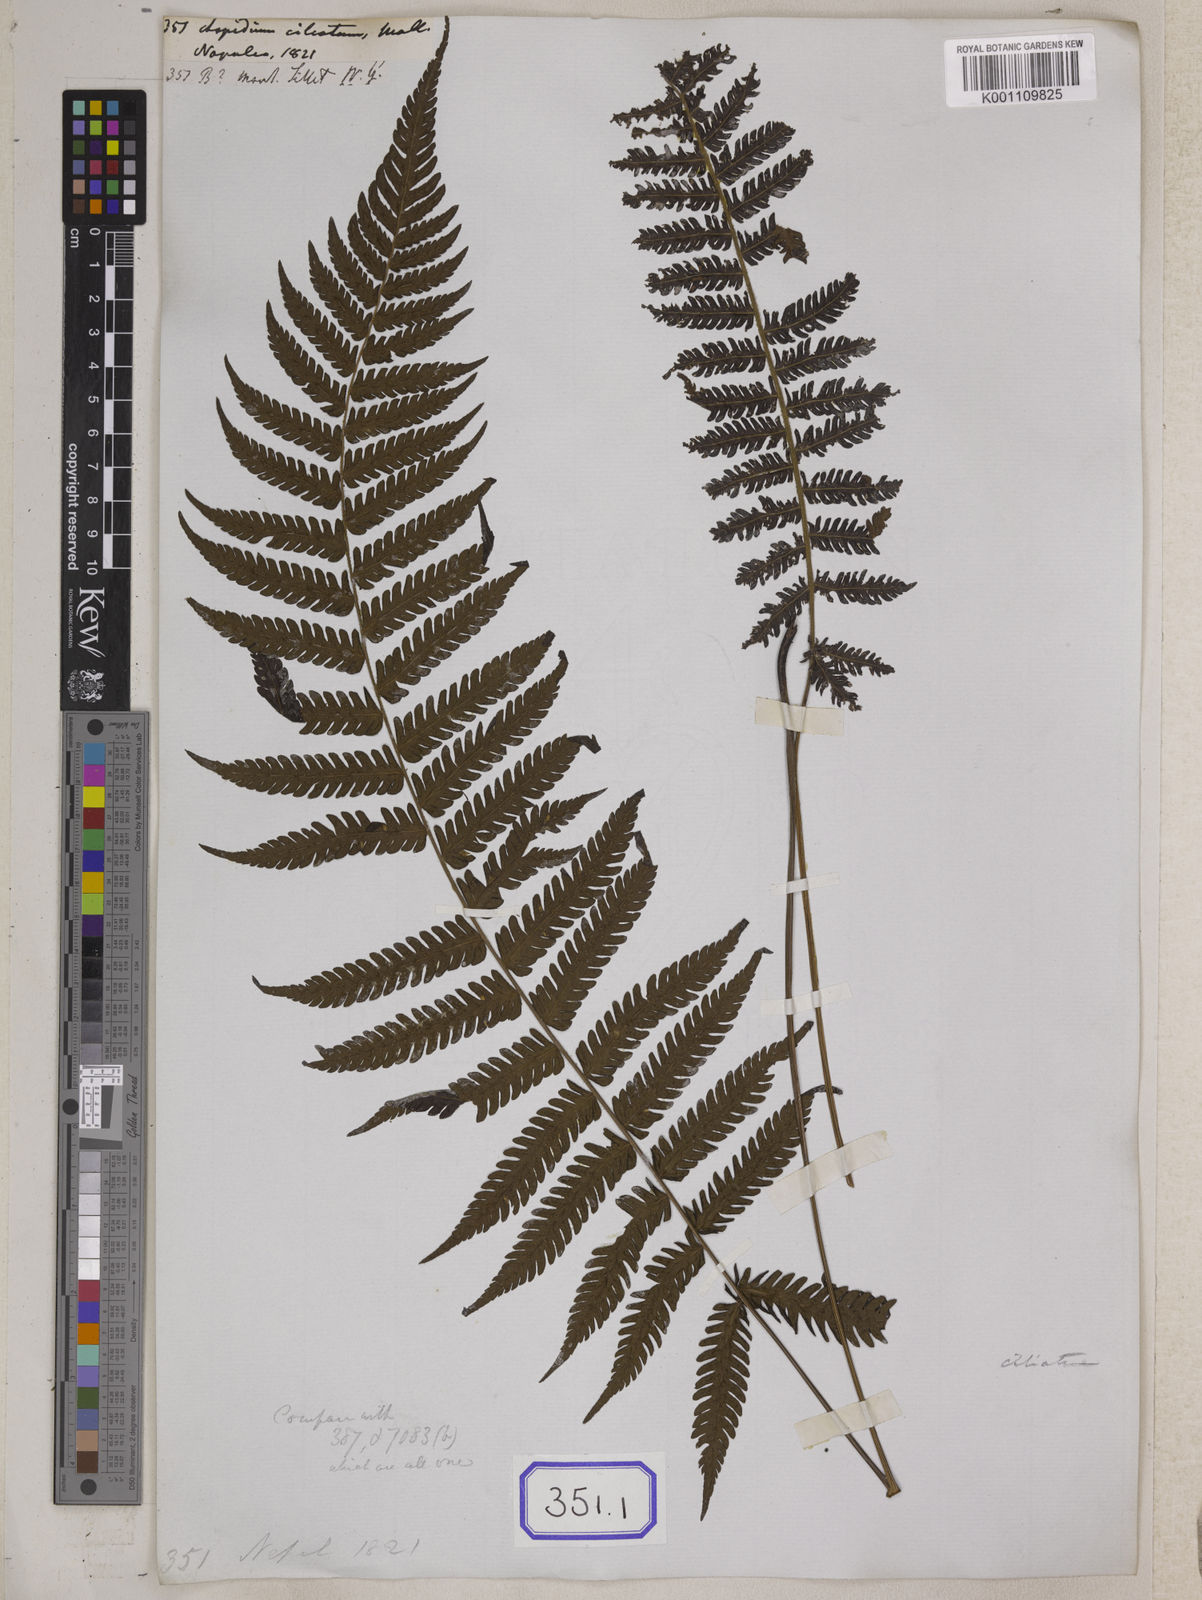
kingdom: Plantae
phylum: Tracheophyta
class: Polypodiopsida
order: Polypodiales
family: Thelypteridaceae
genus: Trigonospora
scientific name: Trigonospora tenera
